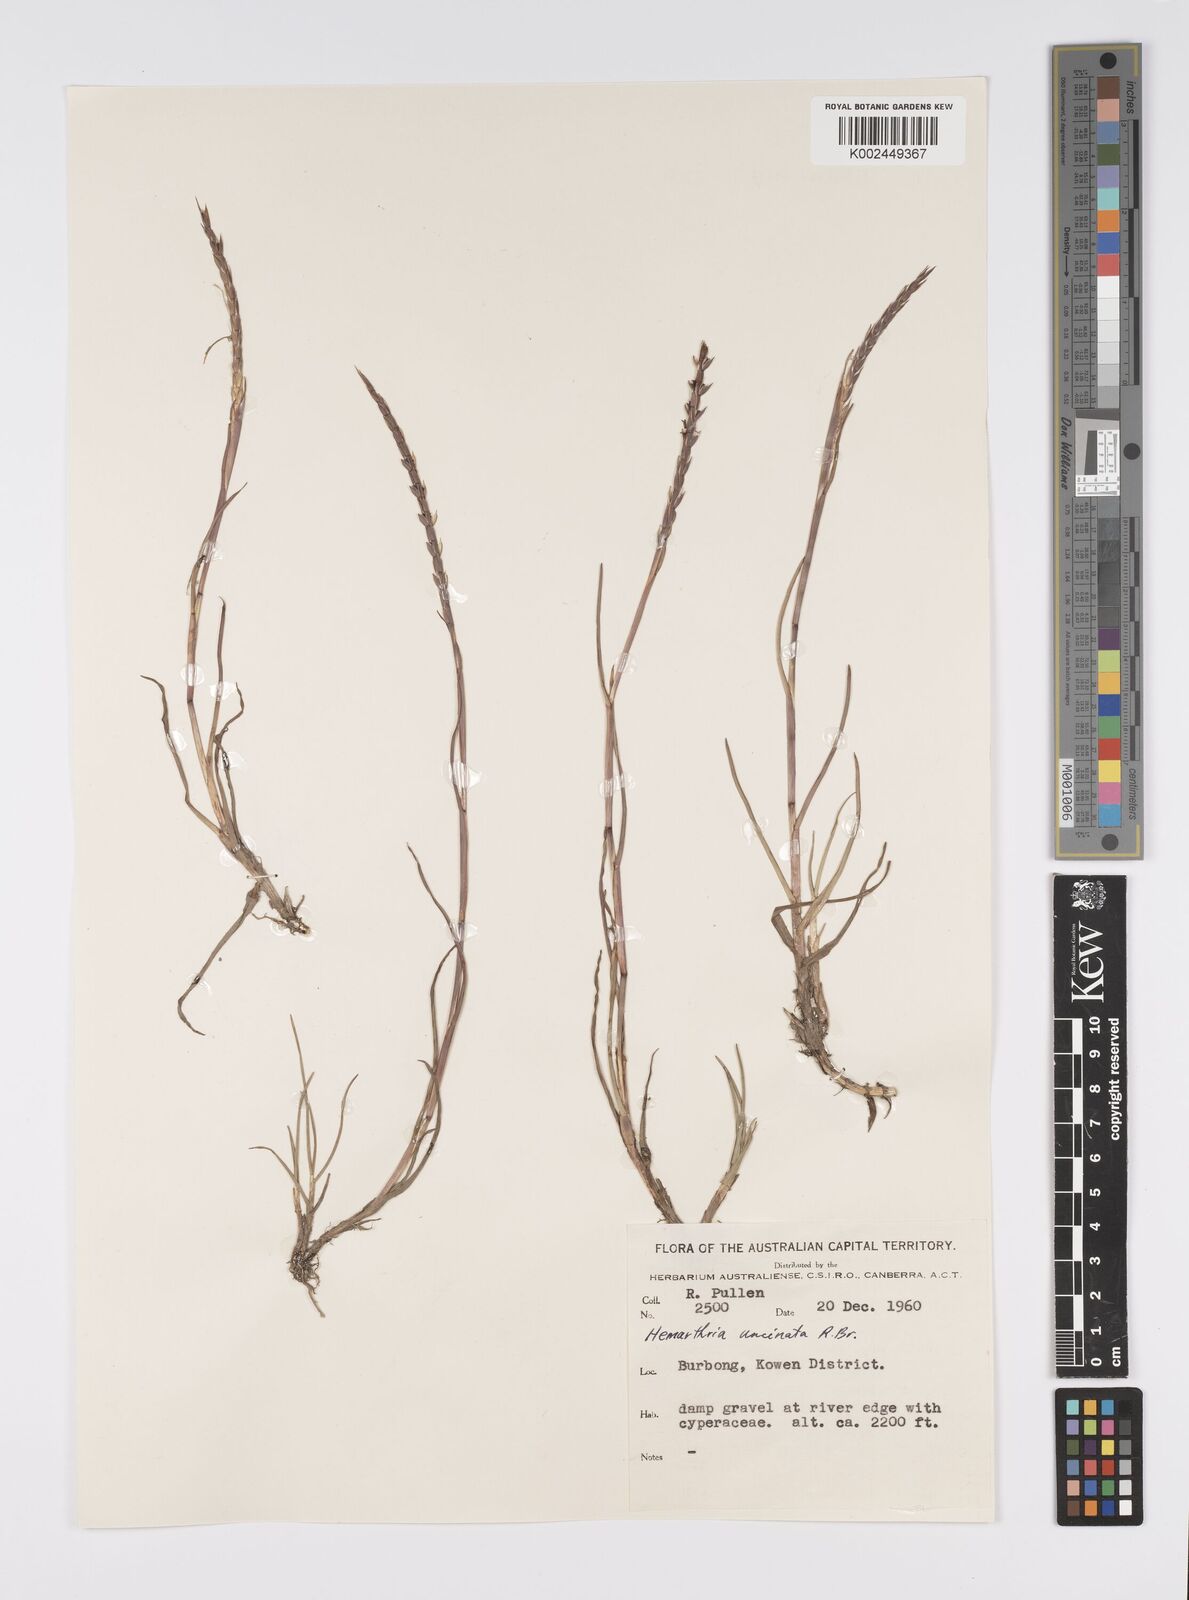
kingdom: Plantae
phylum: Tracheophyta
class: Liliopsida
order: Poales
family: Poaceae
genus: Hemarthria
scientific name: Hemarthria uncinata
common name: Matgrass
